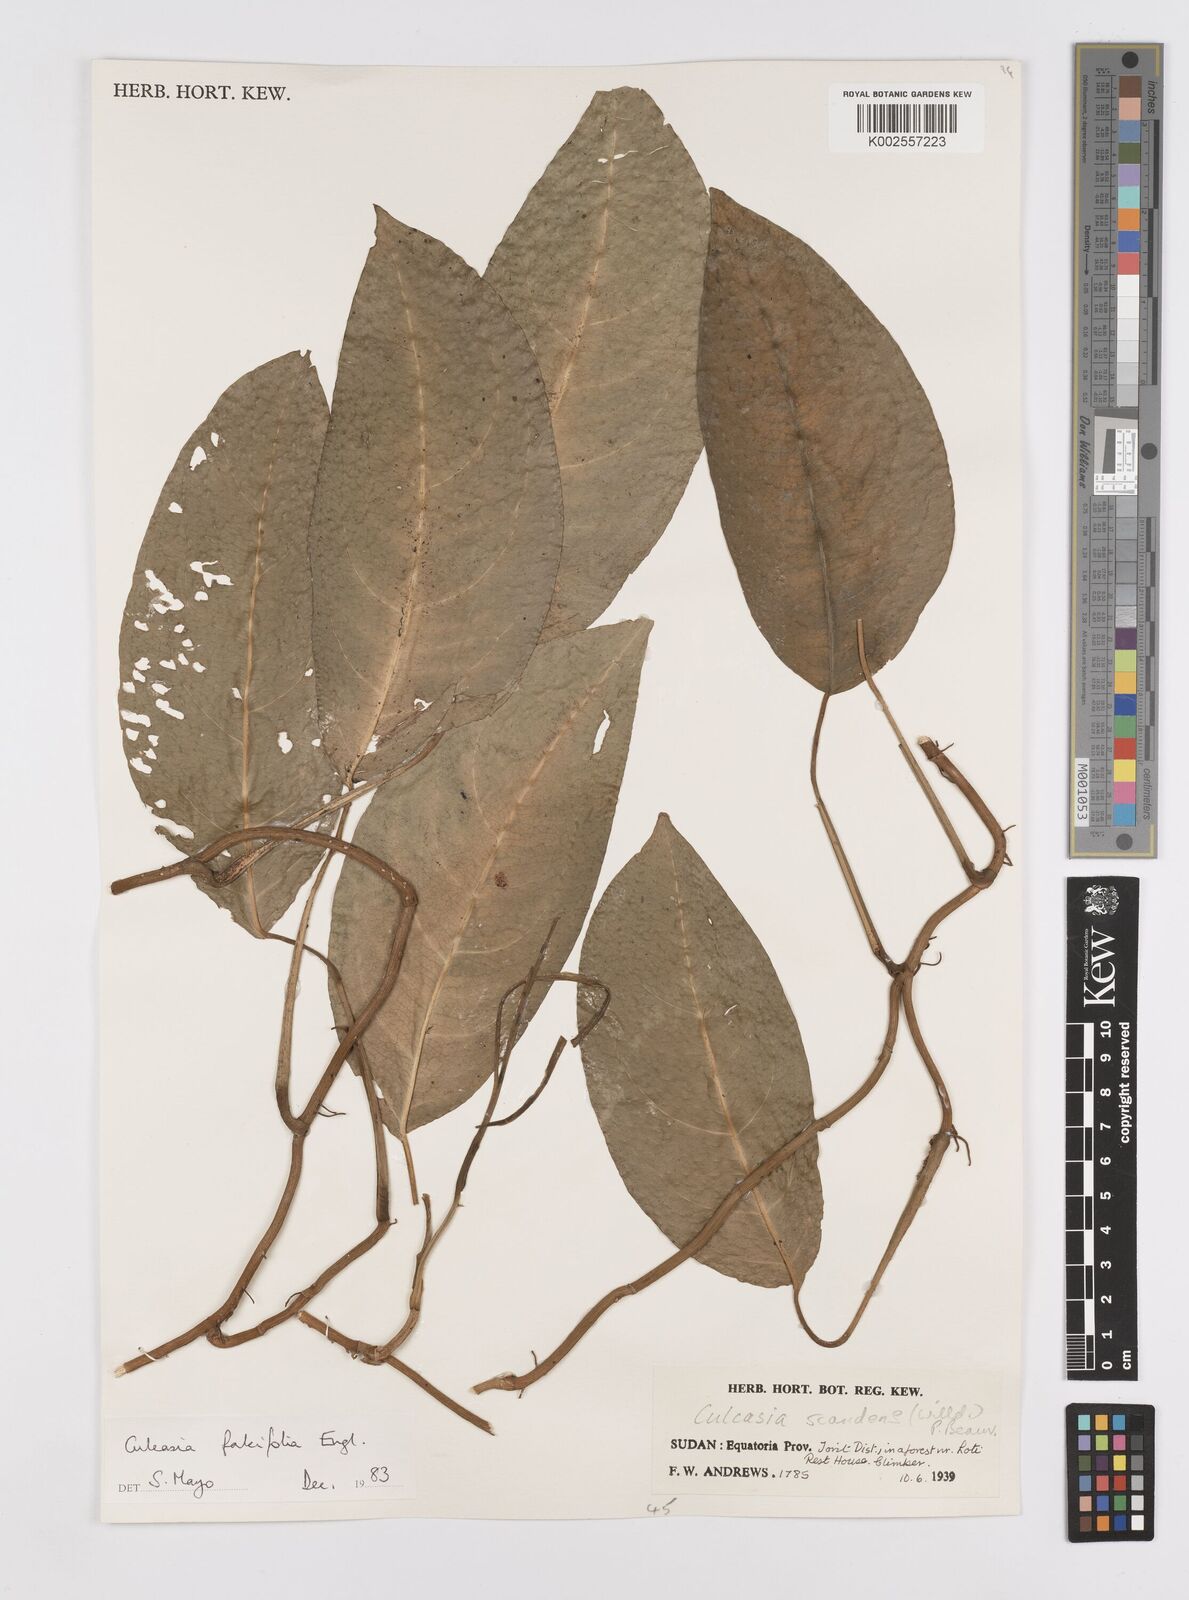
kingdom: Plantae
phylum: Tracheophyta
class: Liliopsida
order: Alismatales
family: Araceae
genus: Culcasia
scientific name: Culcasia falcifolia
